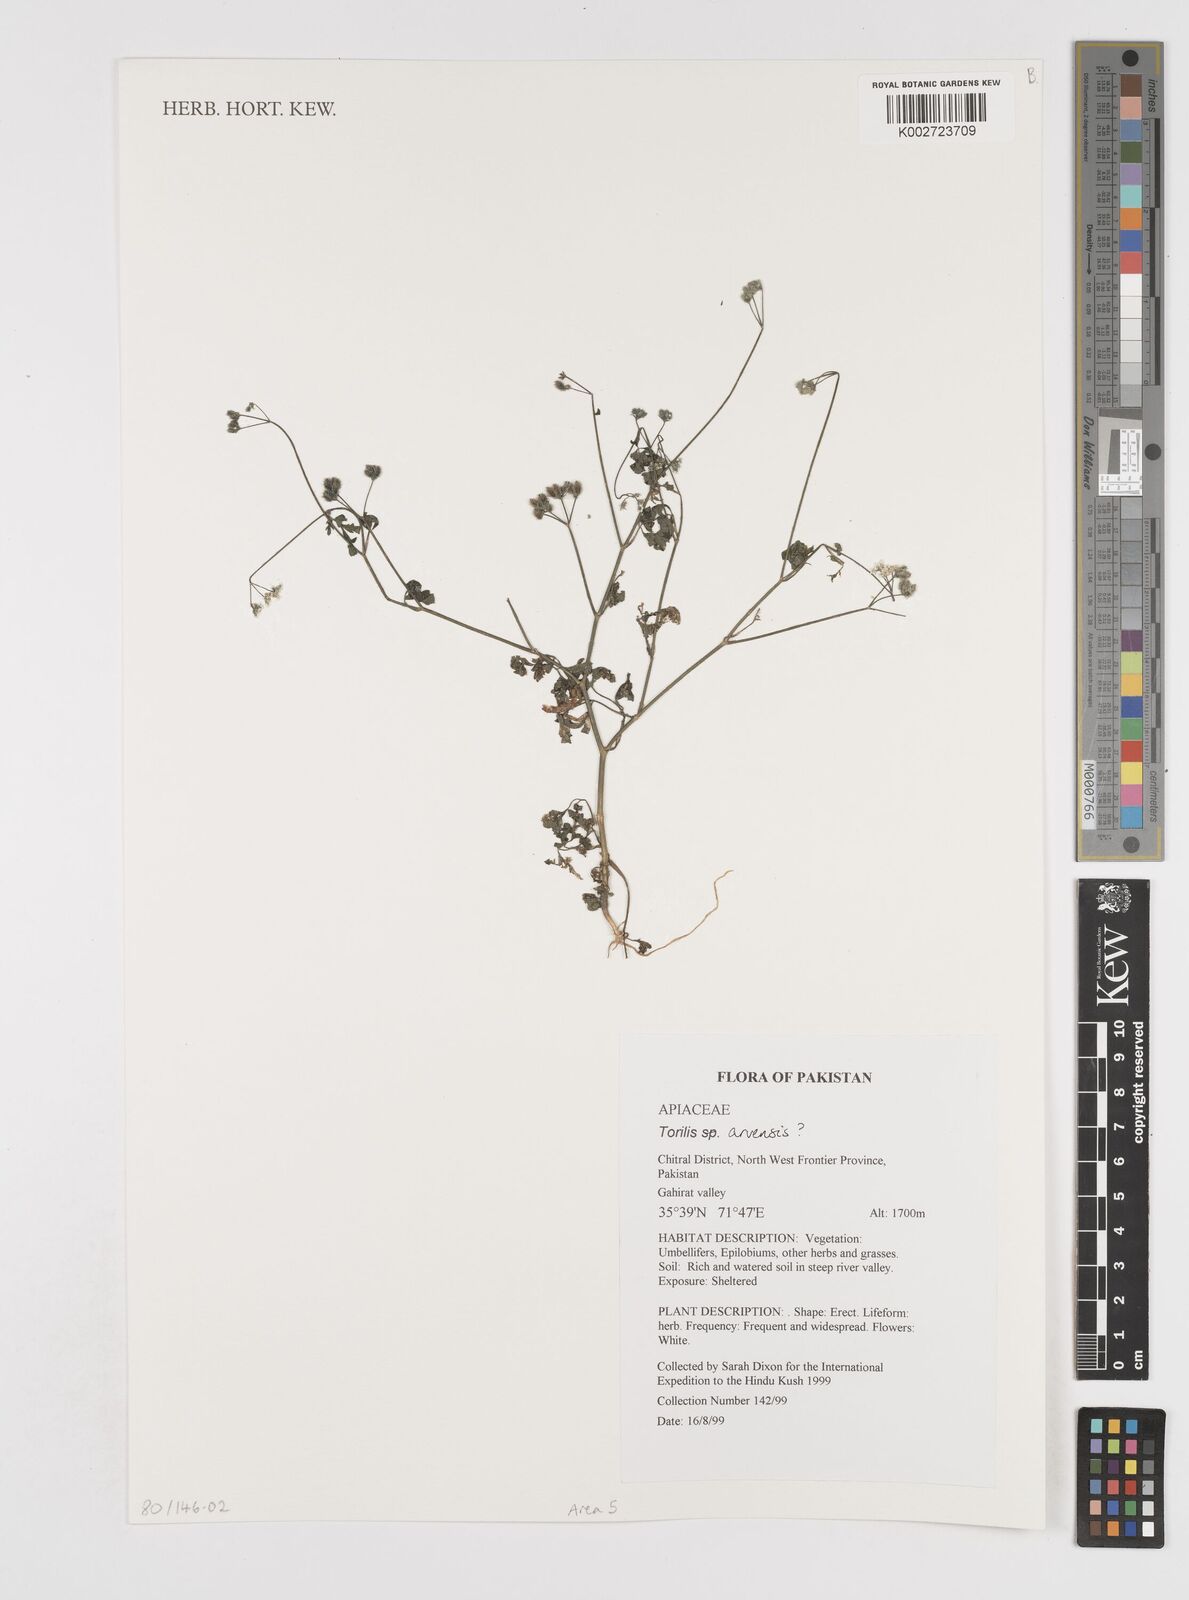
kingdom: Plantae
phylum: Tracheophyta
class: Magnoliopsida
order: Apiales
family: Apiaceae
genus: Torilis
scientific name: Torilis arvensis
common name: Spreading hedge-parsley
